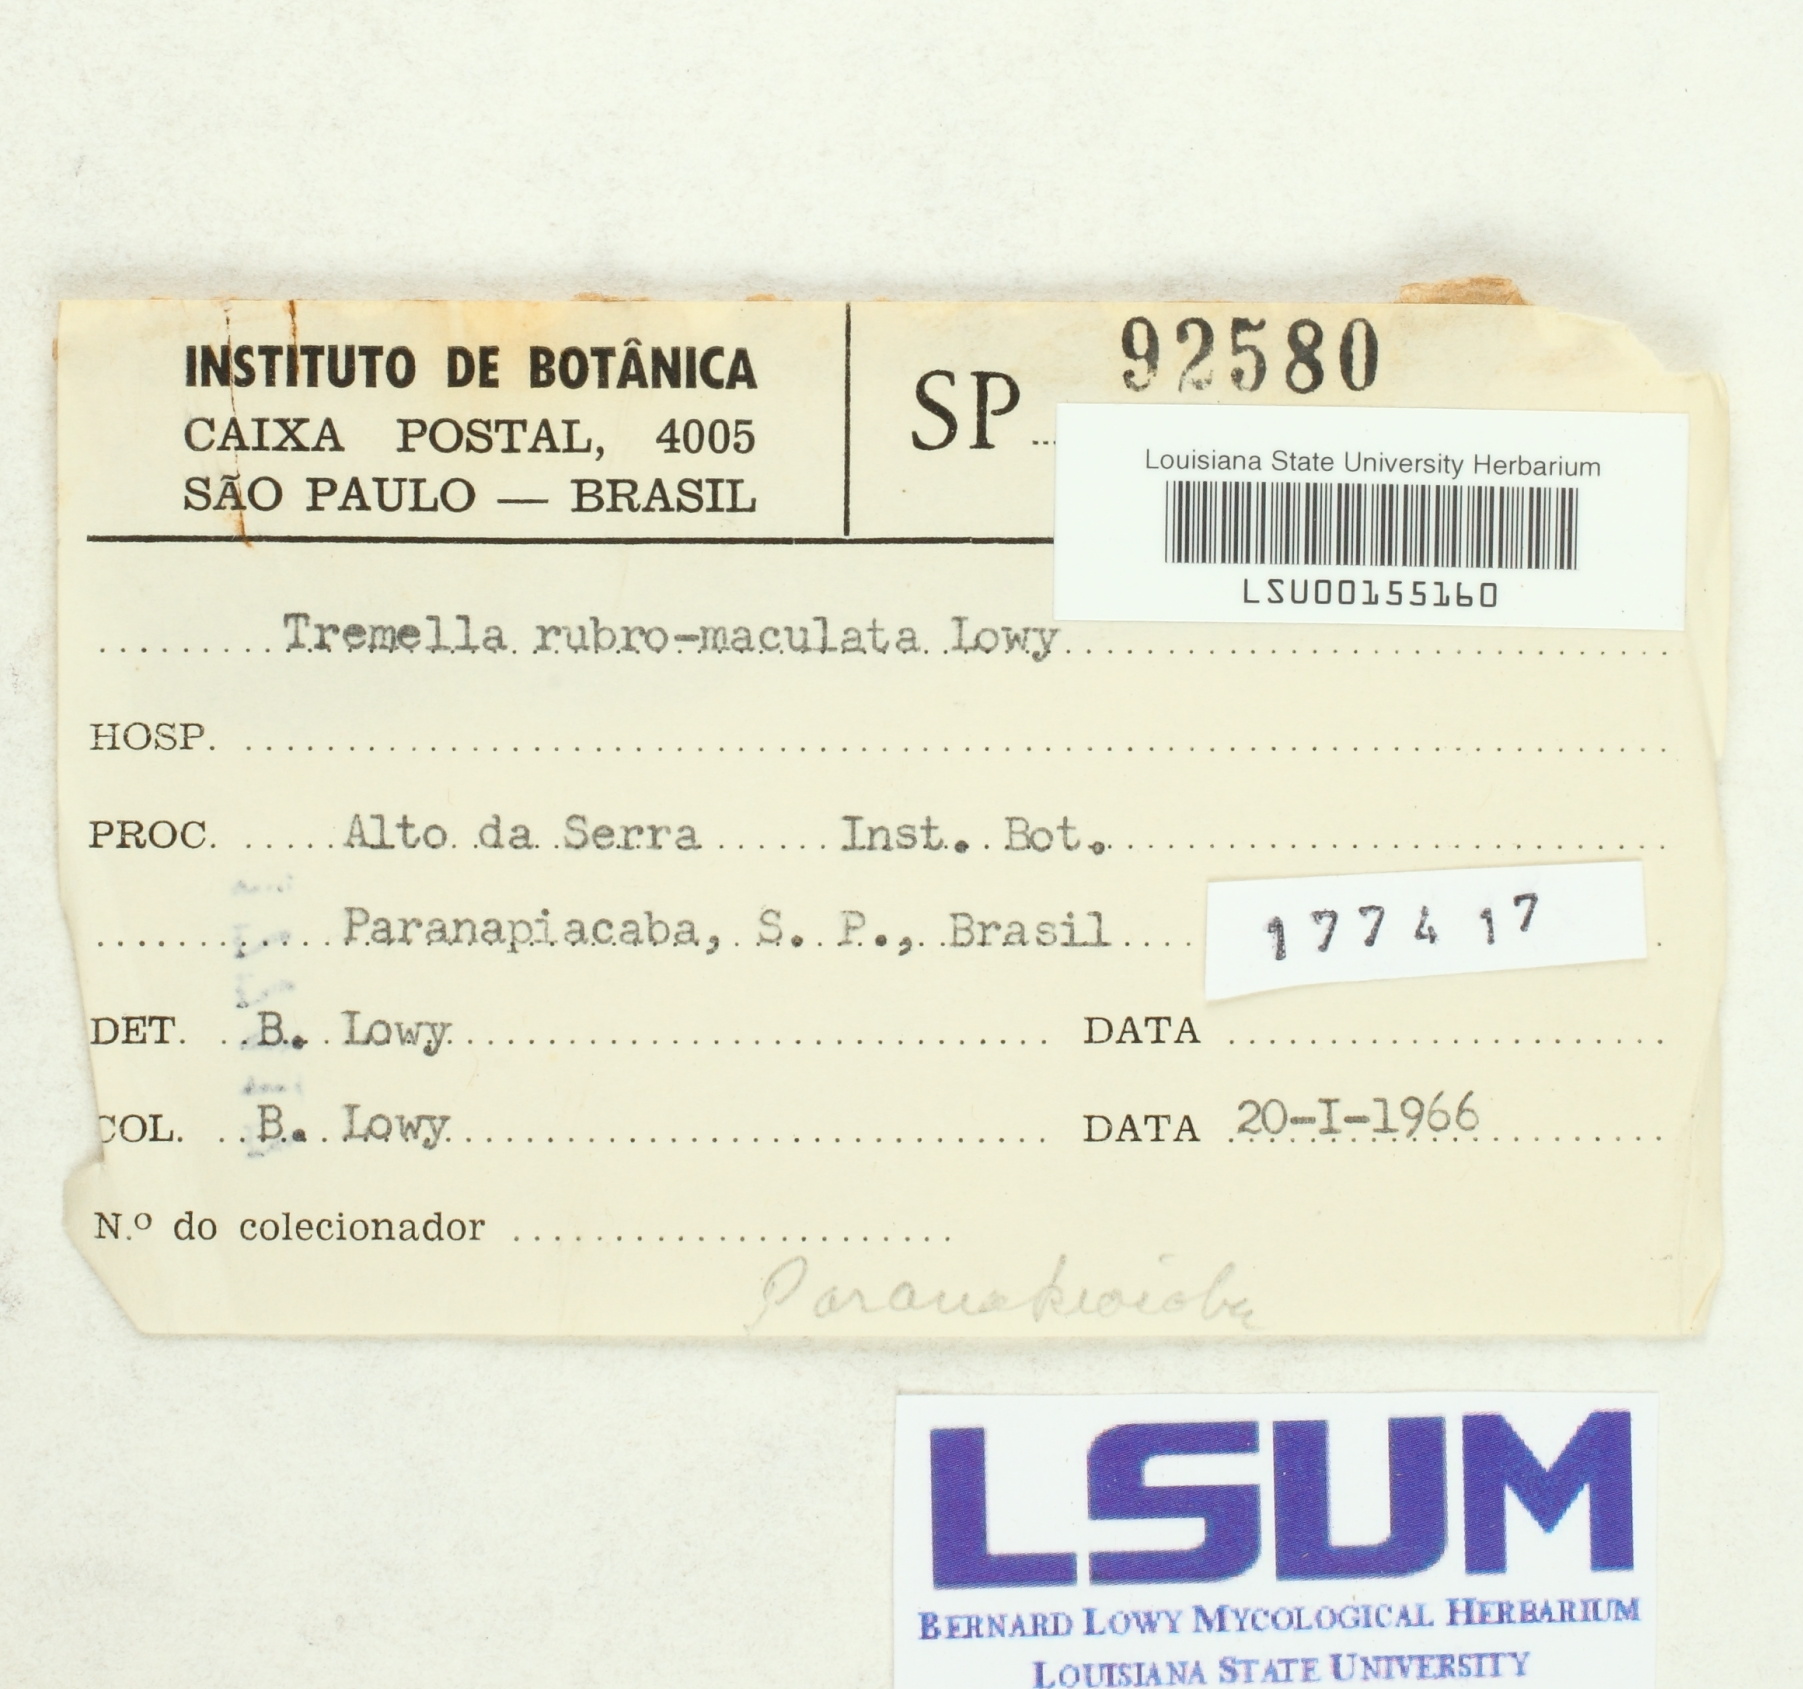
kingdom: Fungi
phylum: Basidiomycota
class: Tremellomycetes
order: Tremellales
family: Tremellaceae
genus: Tremella
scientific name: Tremella rubromaculata
